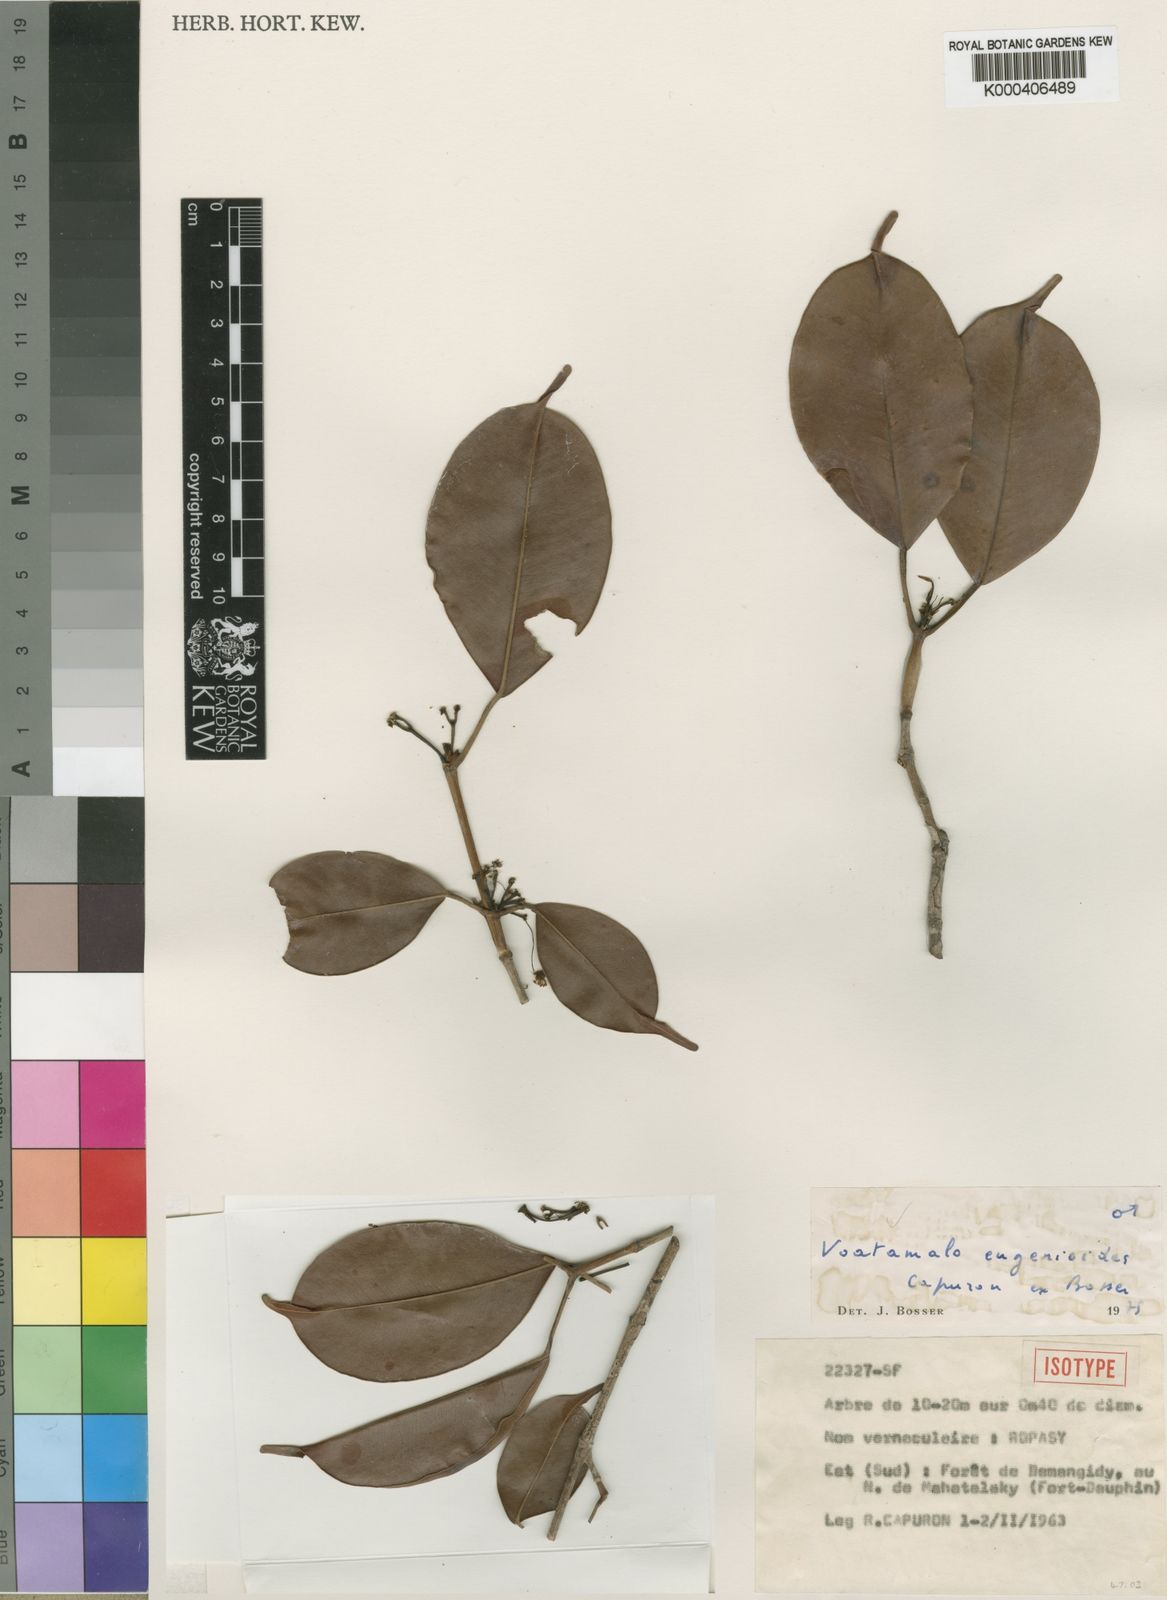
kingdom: Plantae
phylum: Tracheophyta
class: Magnoliopsida
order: Malpighiales
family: Picrodendraceae
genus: Voatamalo
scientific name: Voatamalo eugenioides
